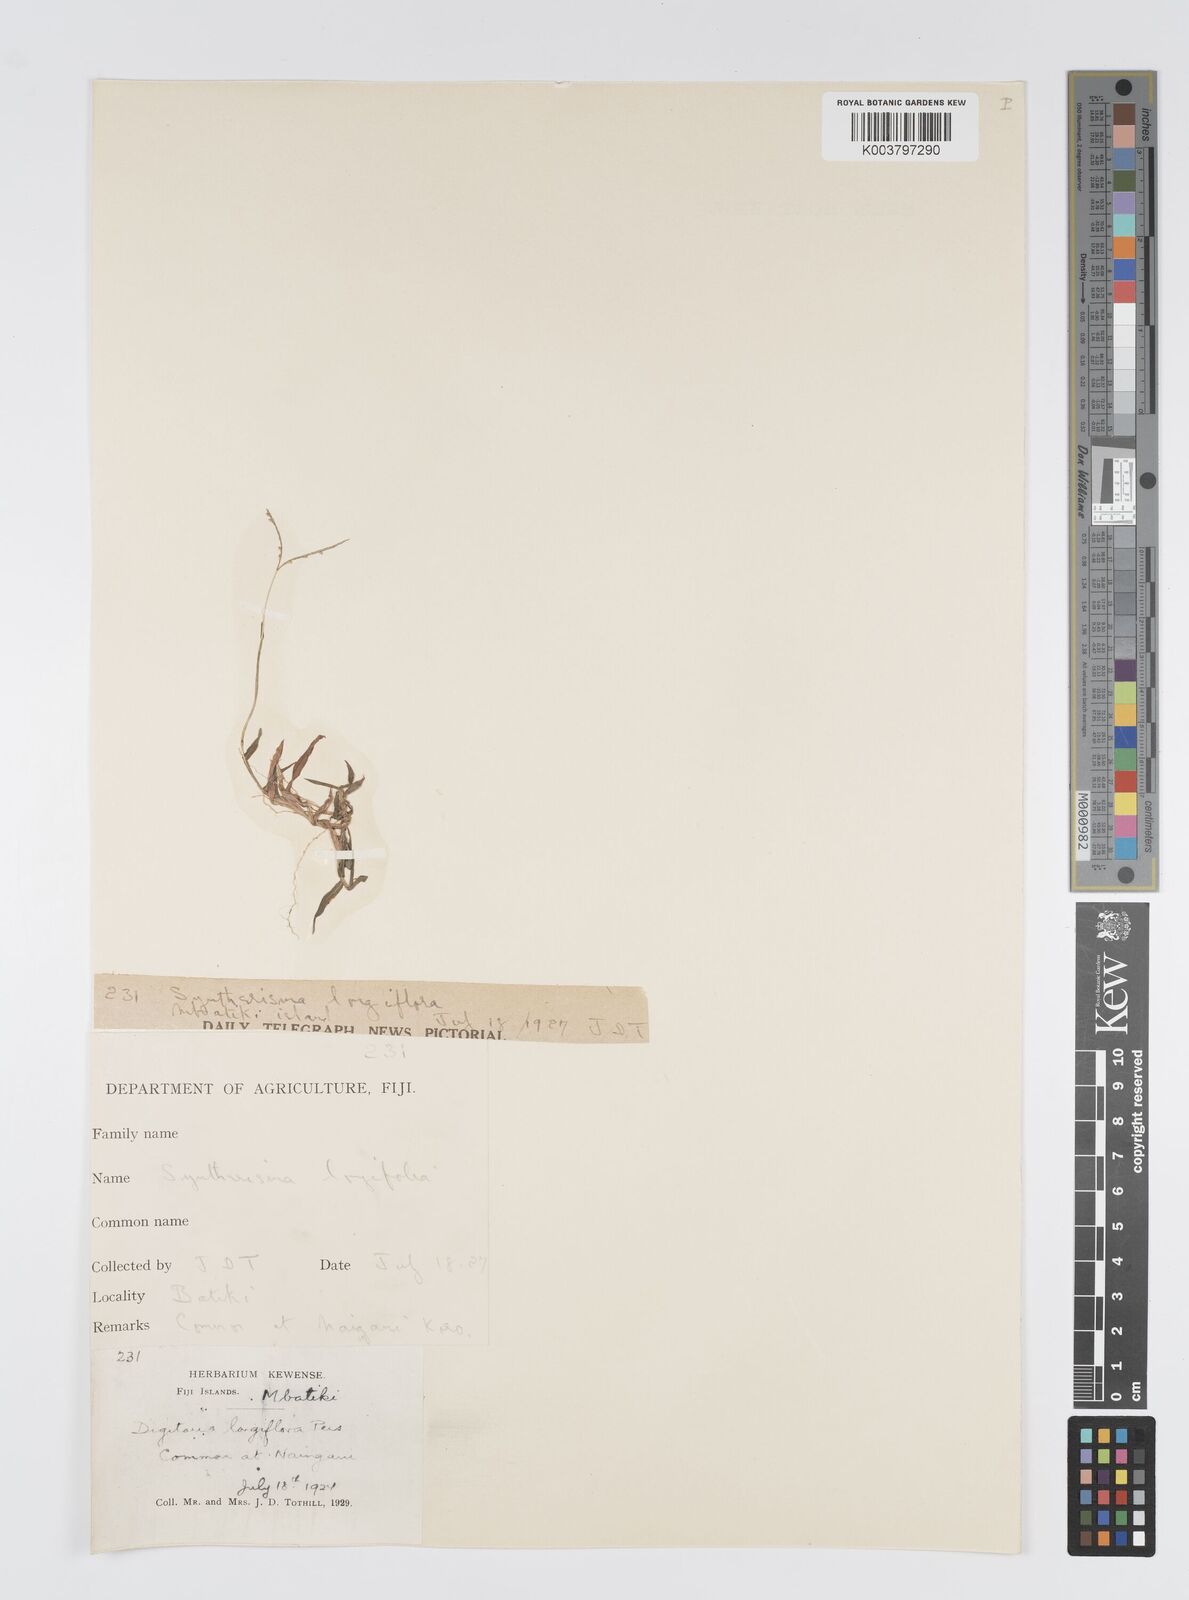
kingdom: Plantae
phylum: Tracheophyta
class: Liliopsida
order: Poales
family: Poaceae
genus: Digitaria
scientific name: Digitaria fuscescens
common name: Yellow crabgrass
